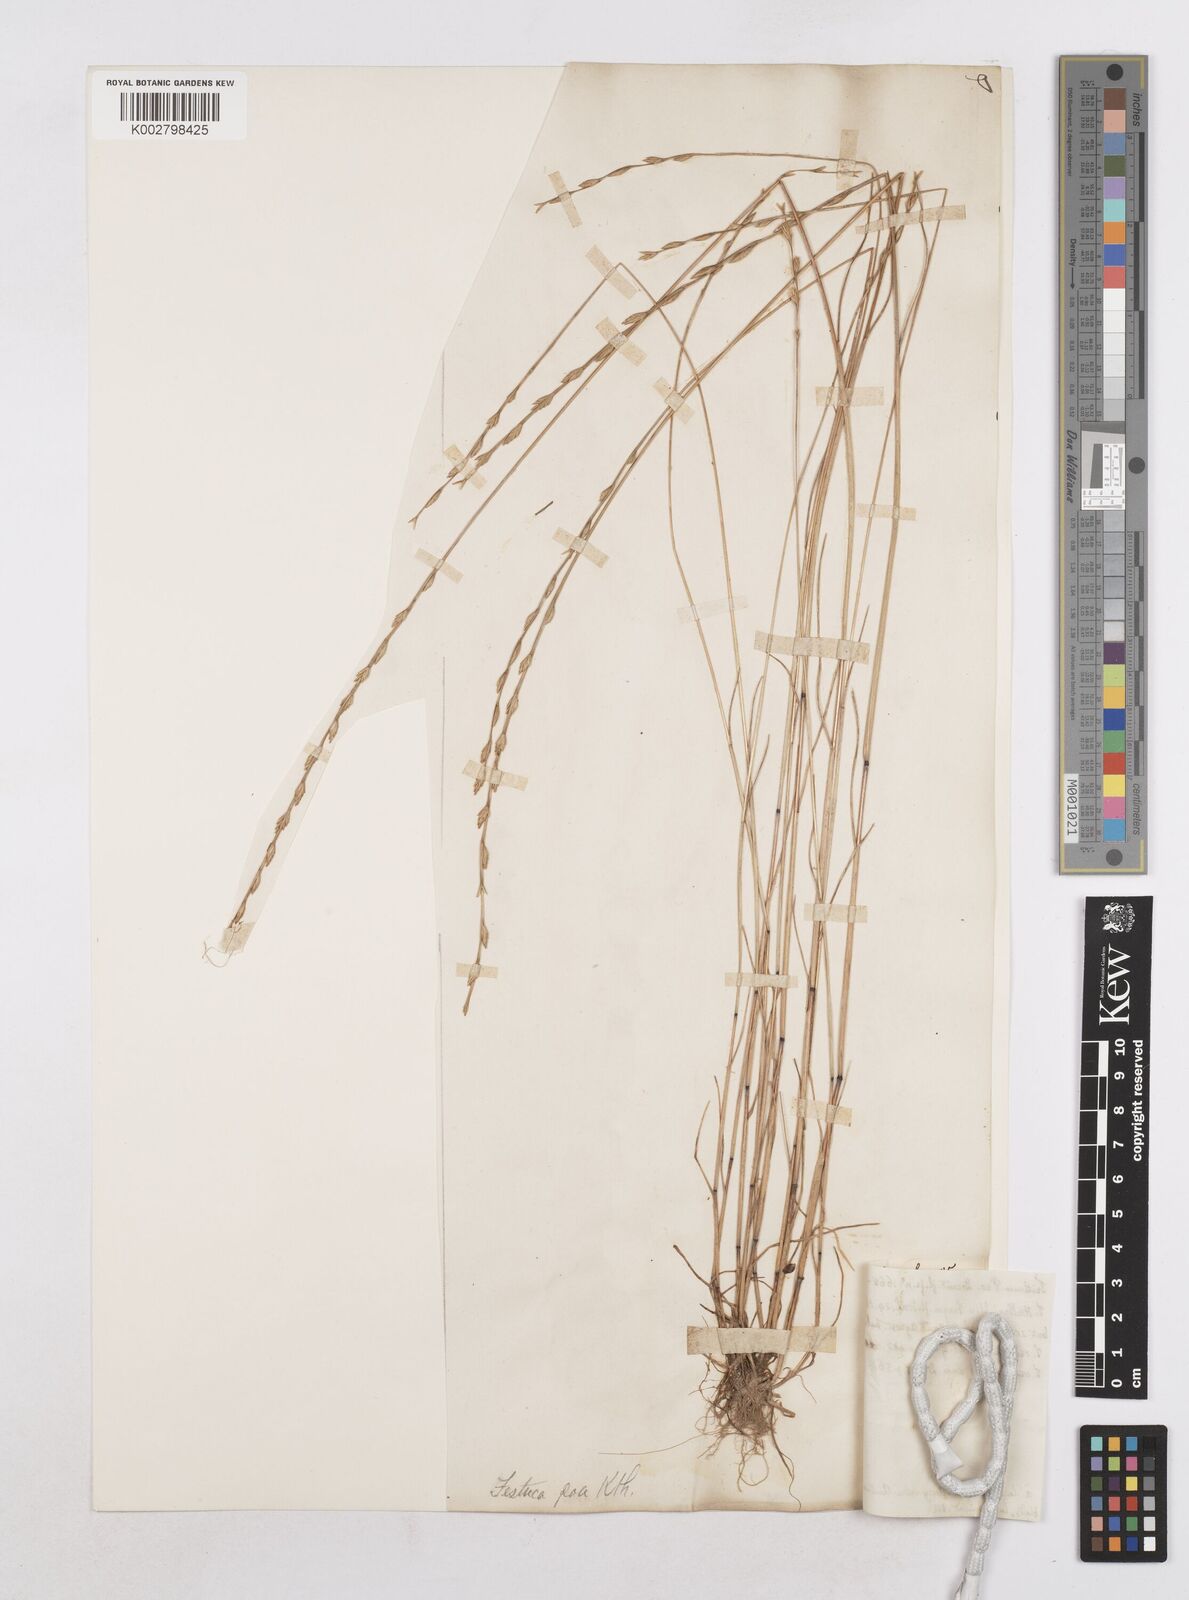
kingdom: Plantae
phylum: Tracheophyta
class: Liliopsida
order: Poales
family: Poaceae
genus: Festuca
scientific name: Festuca lachenalii
